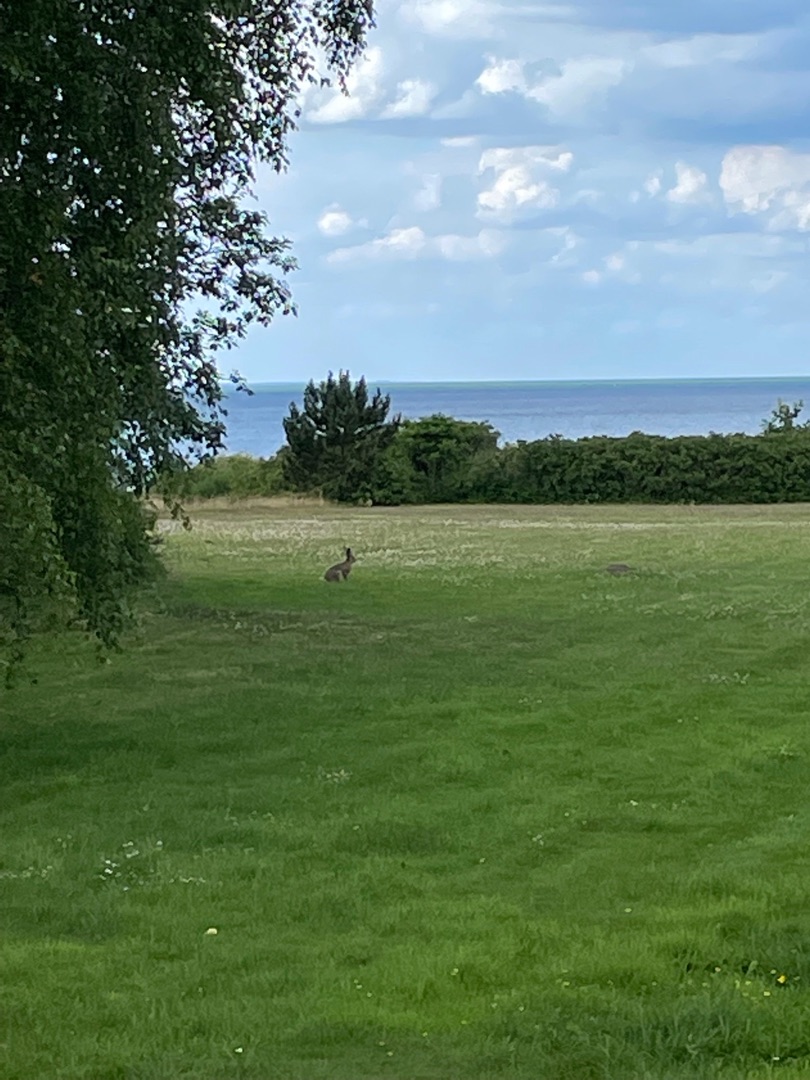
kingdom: Animalia
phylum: Chordata
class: Mammalia
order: Lagomorpha
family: Leporidae
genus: Lepus
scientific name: Lepus europaeus
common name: Hare
